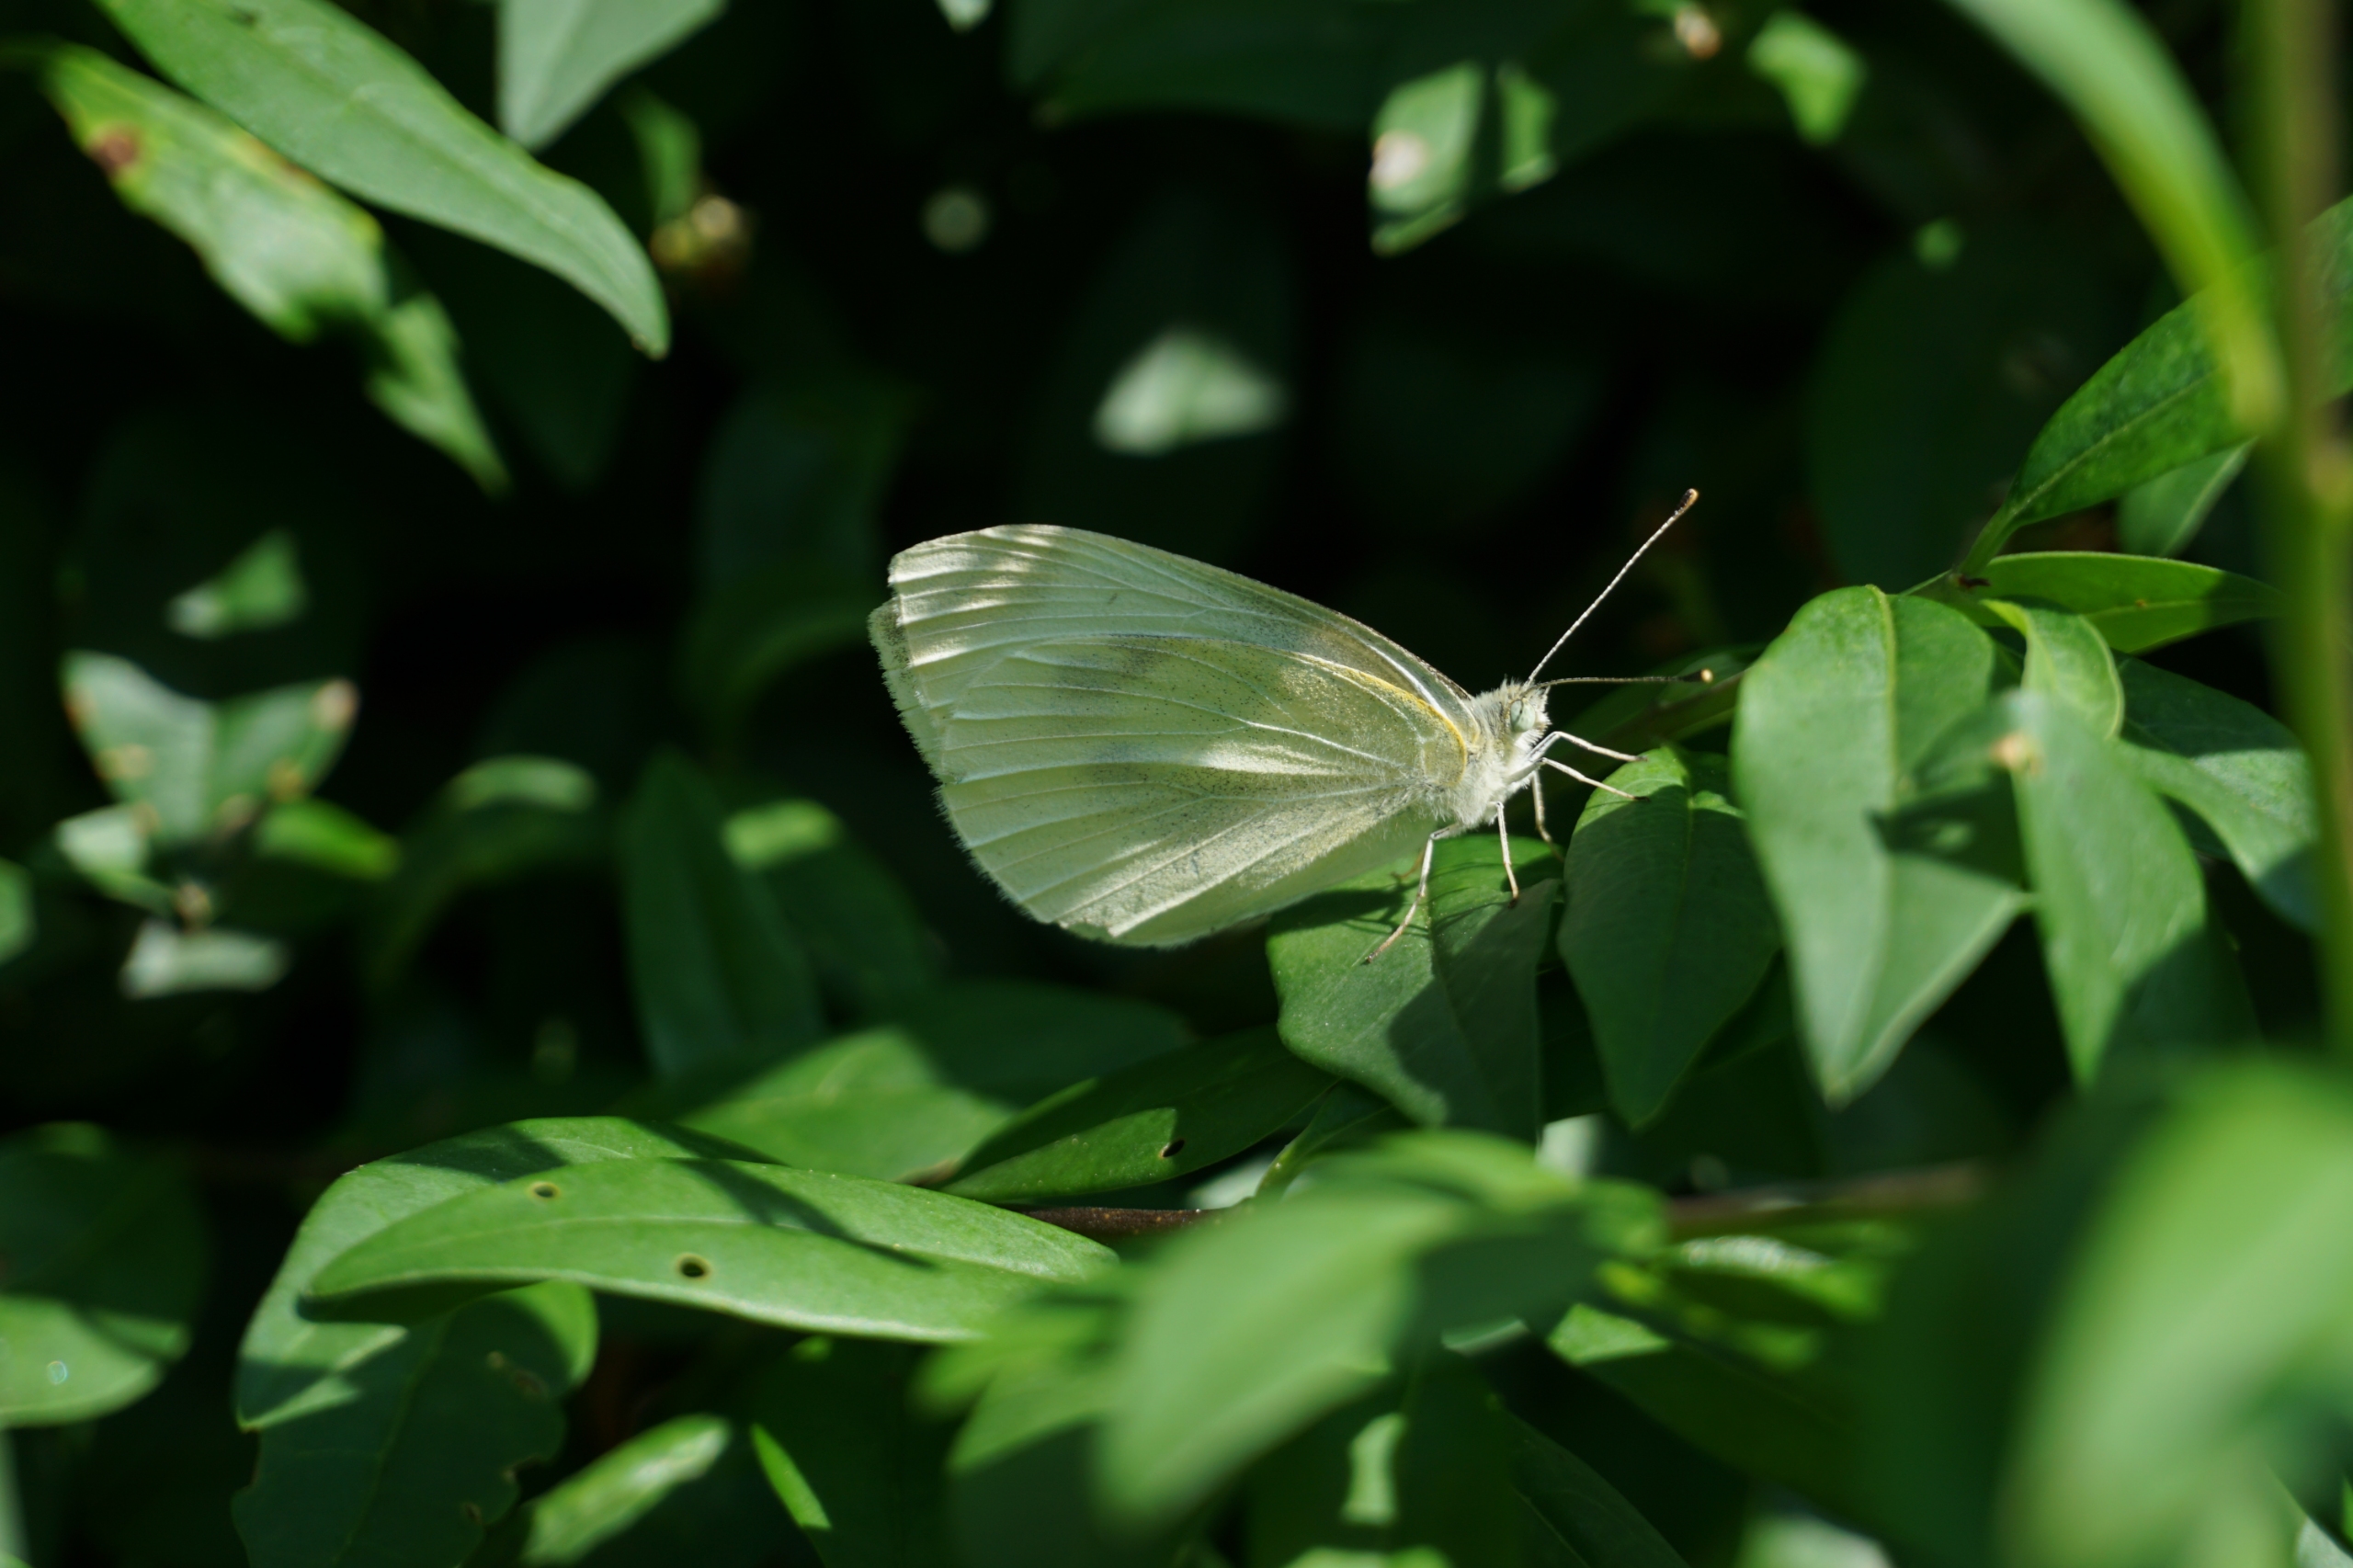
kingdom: Animalia
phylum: Arthropoda
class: Insecta
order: Lepidoptera
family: Pieridae
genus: Pieris
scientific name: Pieris rapae
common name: Lille kålsommerfugl
